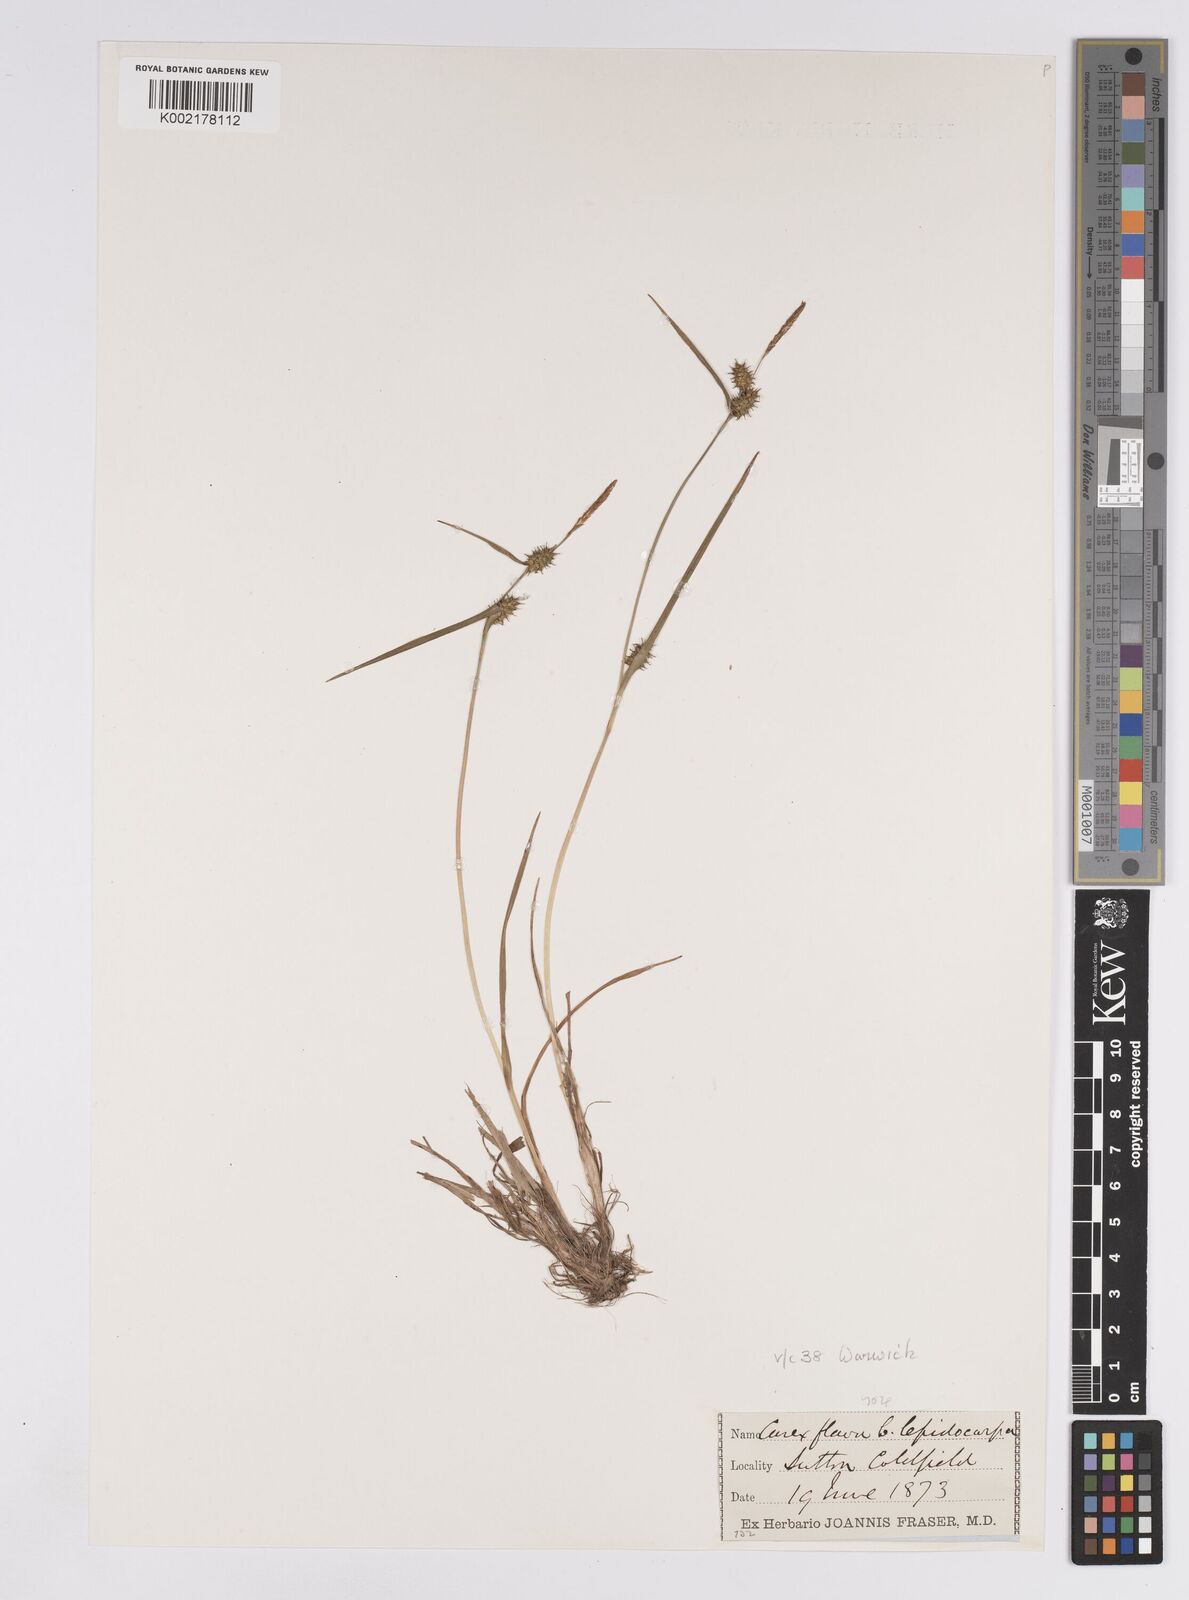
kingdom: Plantae
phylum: Tracheophyta
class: Liliopsida
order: Poales
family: Cyperaceae
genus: Carex
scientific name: Carex demissa
